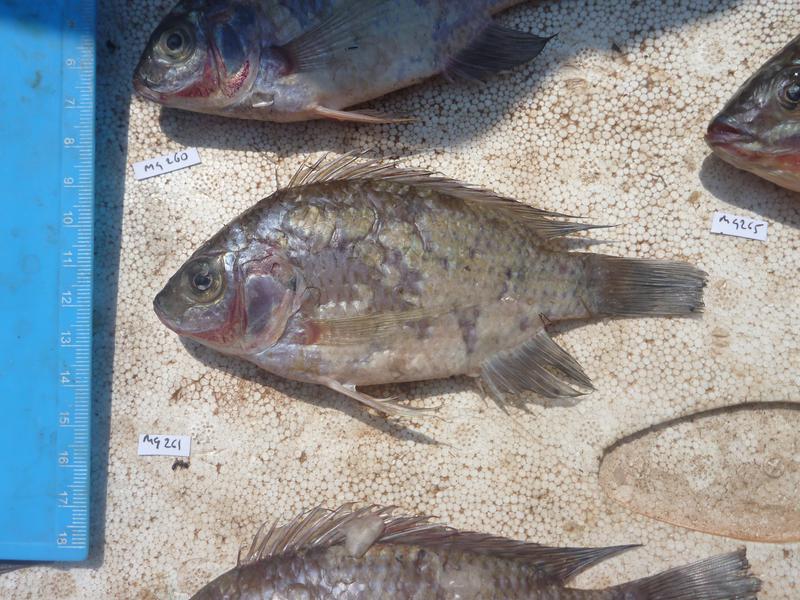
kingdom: Animalia
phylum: Chordata
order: Perciformes
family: Cichlidae
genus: Oreochromis
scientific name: Oreochromis upembae
